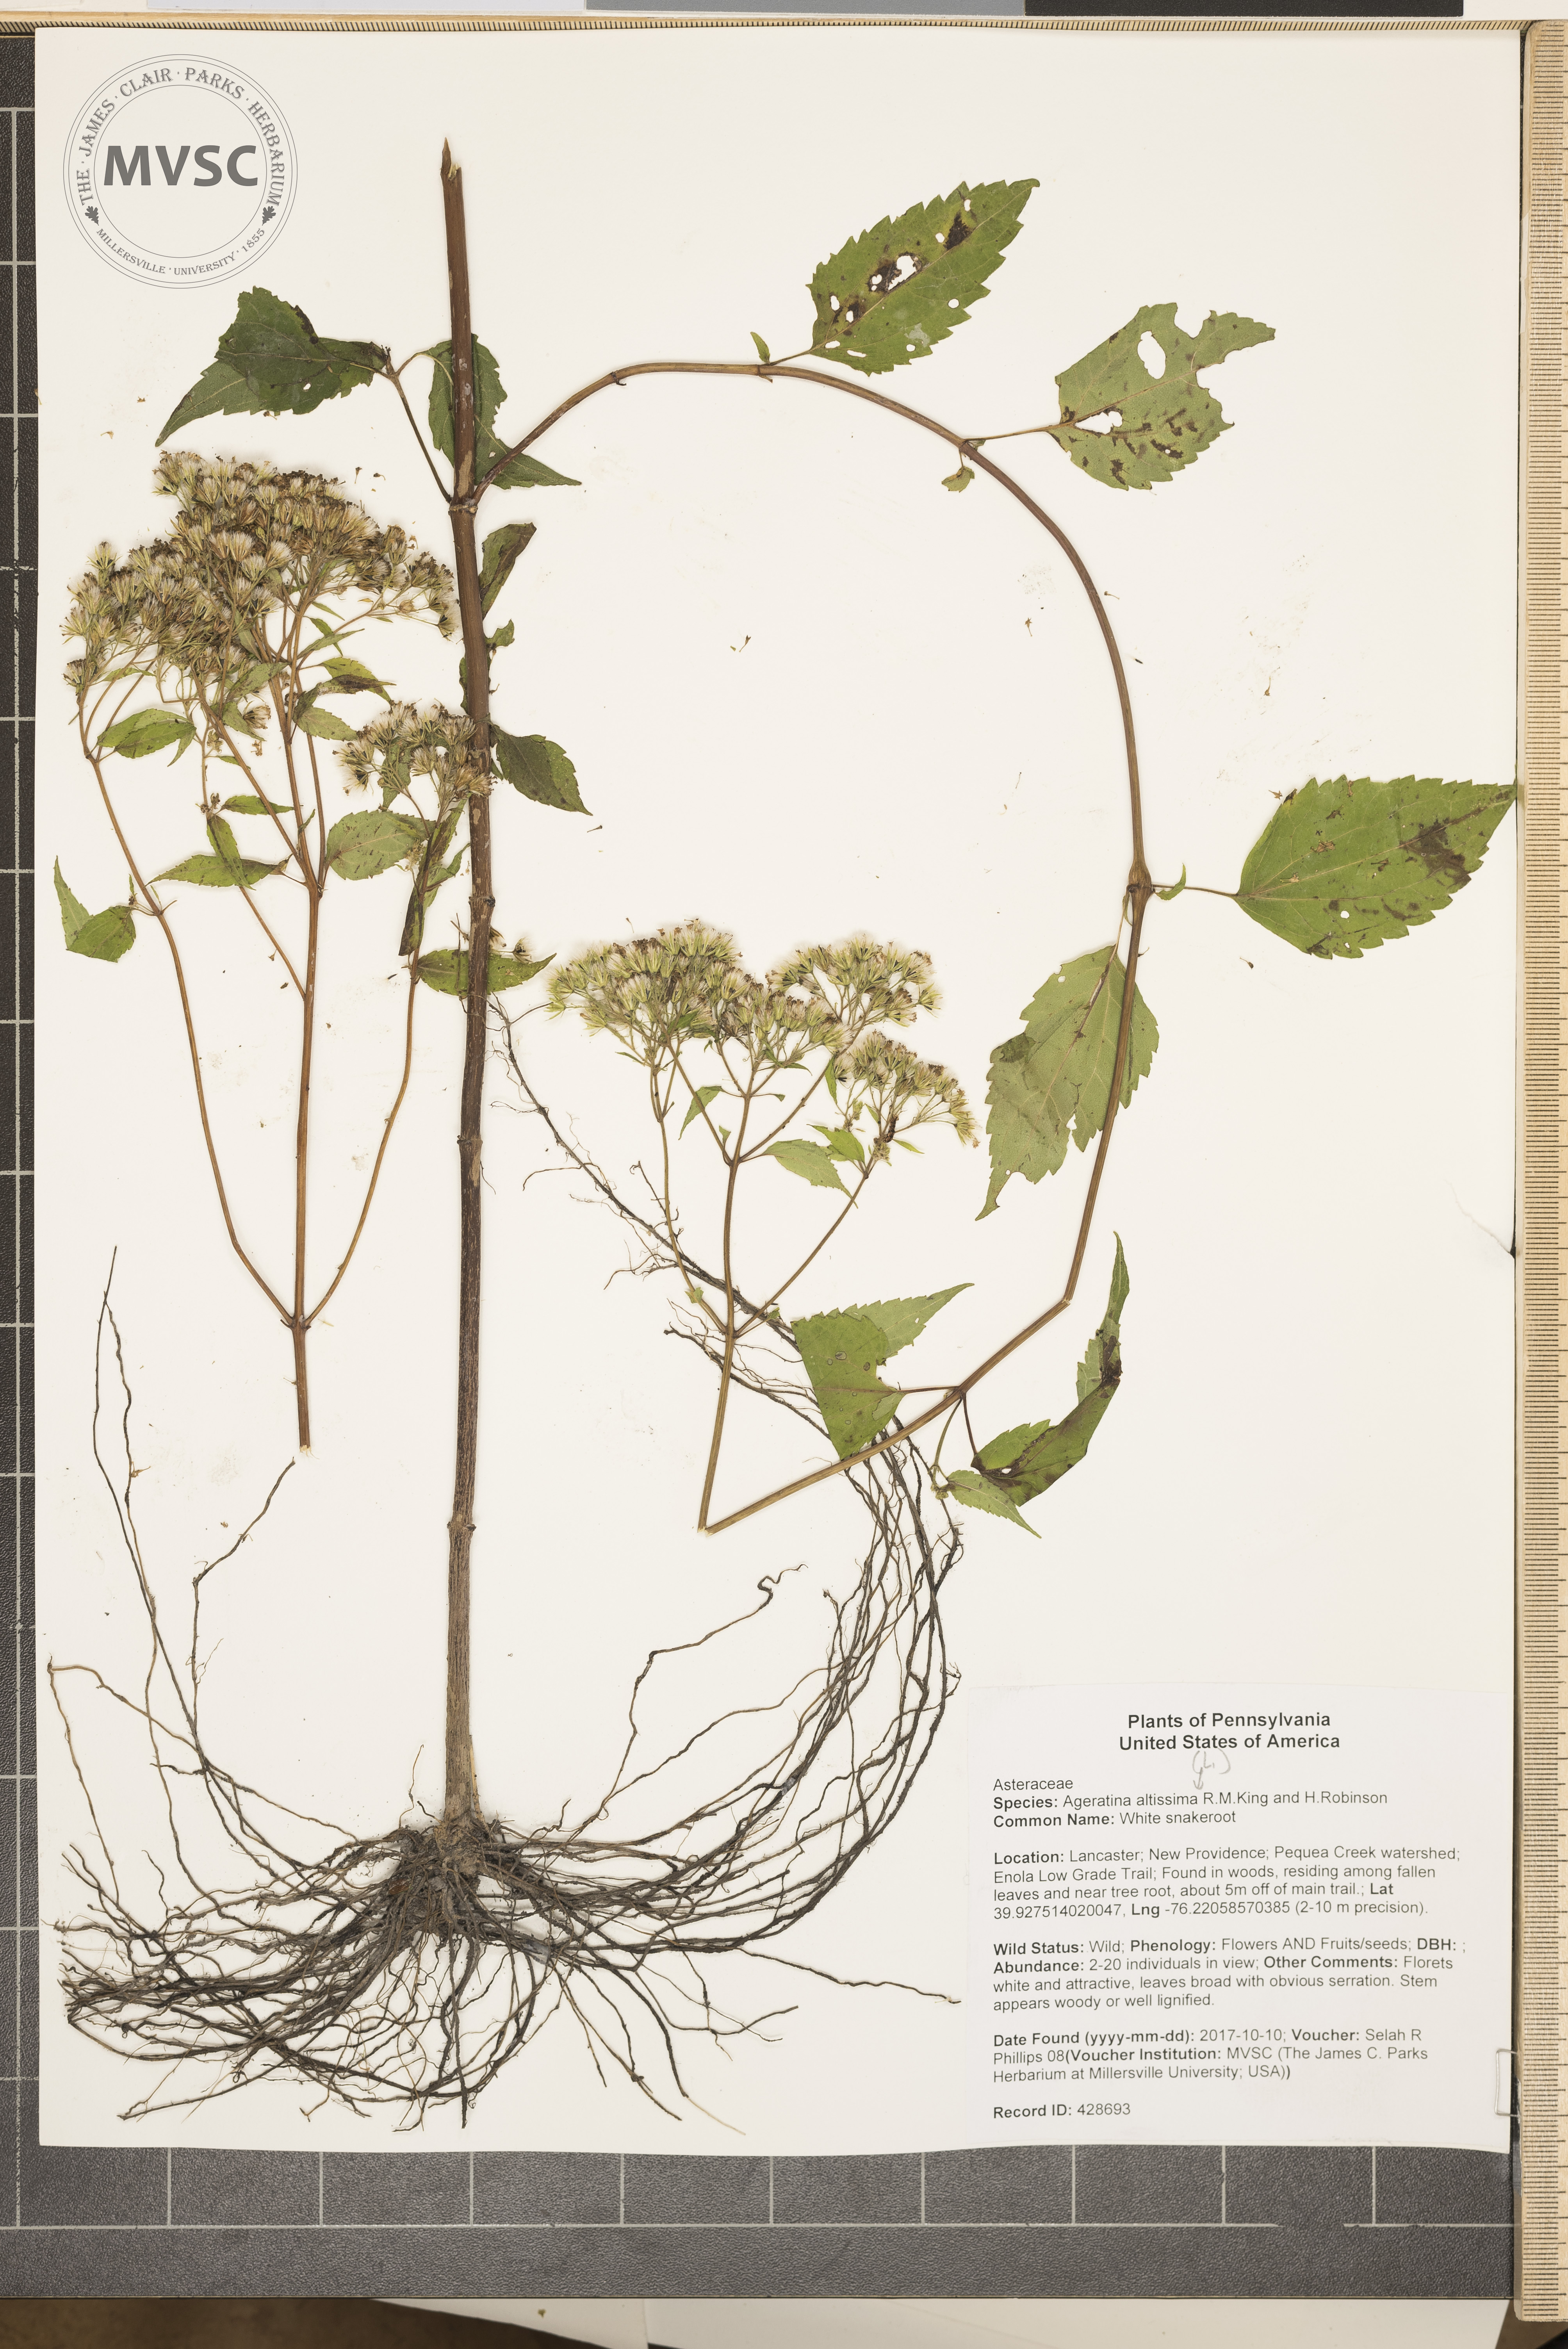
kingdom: Plantae
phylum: Tracheophyta
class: Magnoliopsida
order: Asterales
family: Asteraceae
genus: Ageratina
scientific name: Ageratina altissima
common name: White snakeroot
